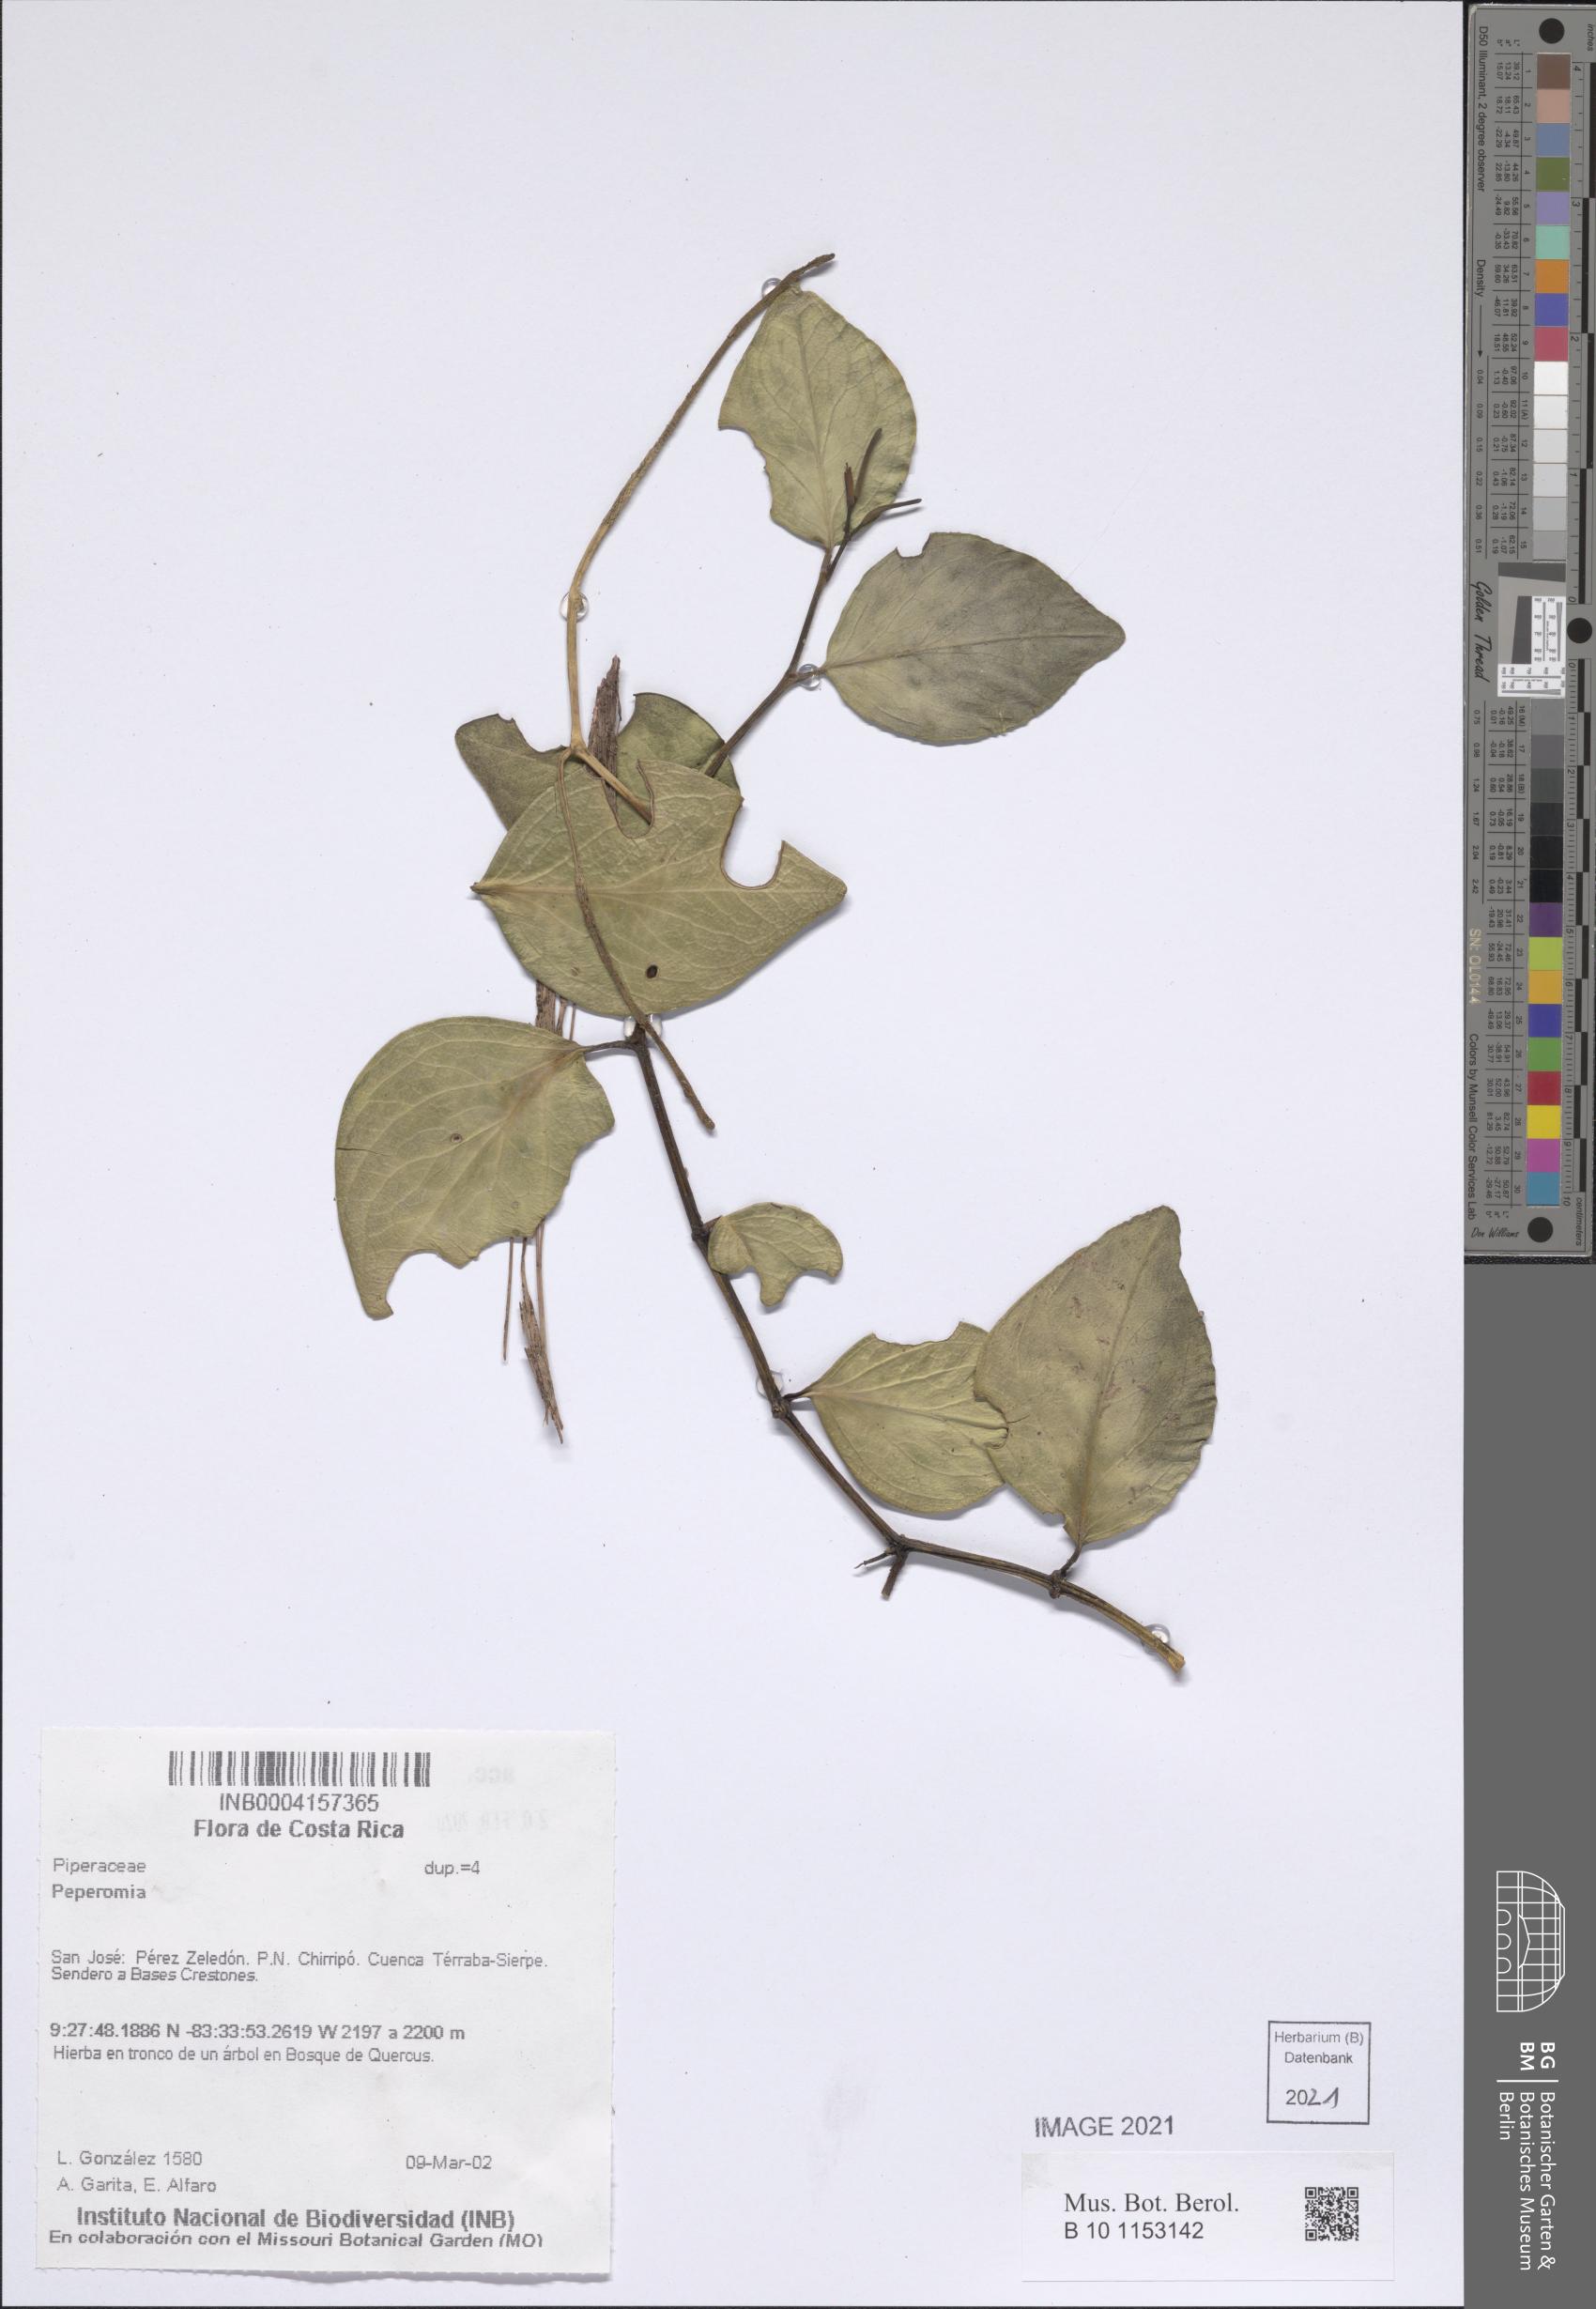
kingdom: Plantae
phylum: Tracheophyta
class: Magnoliopsida
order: Piperales
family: Piperaceae
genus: Peperomia
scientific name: Peperomia
